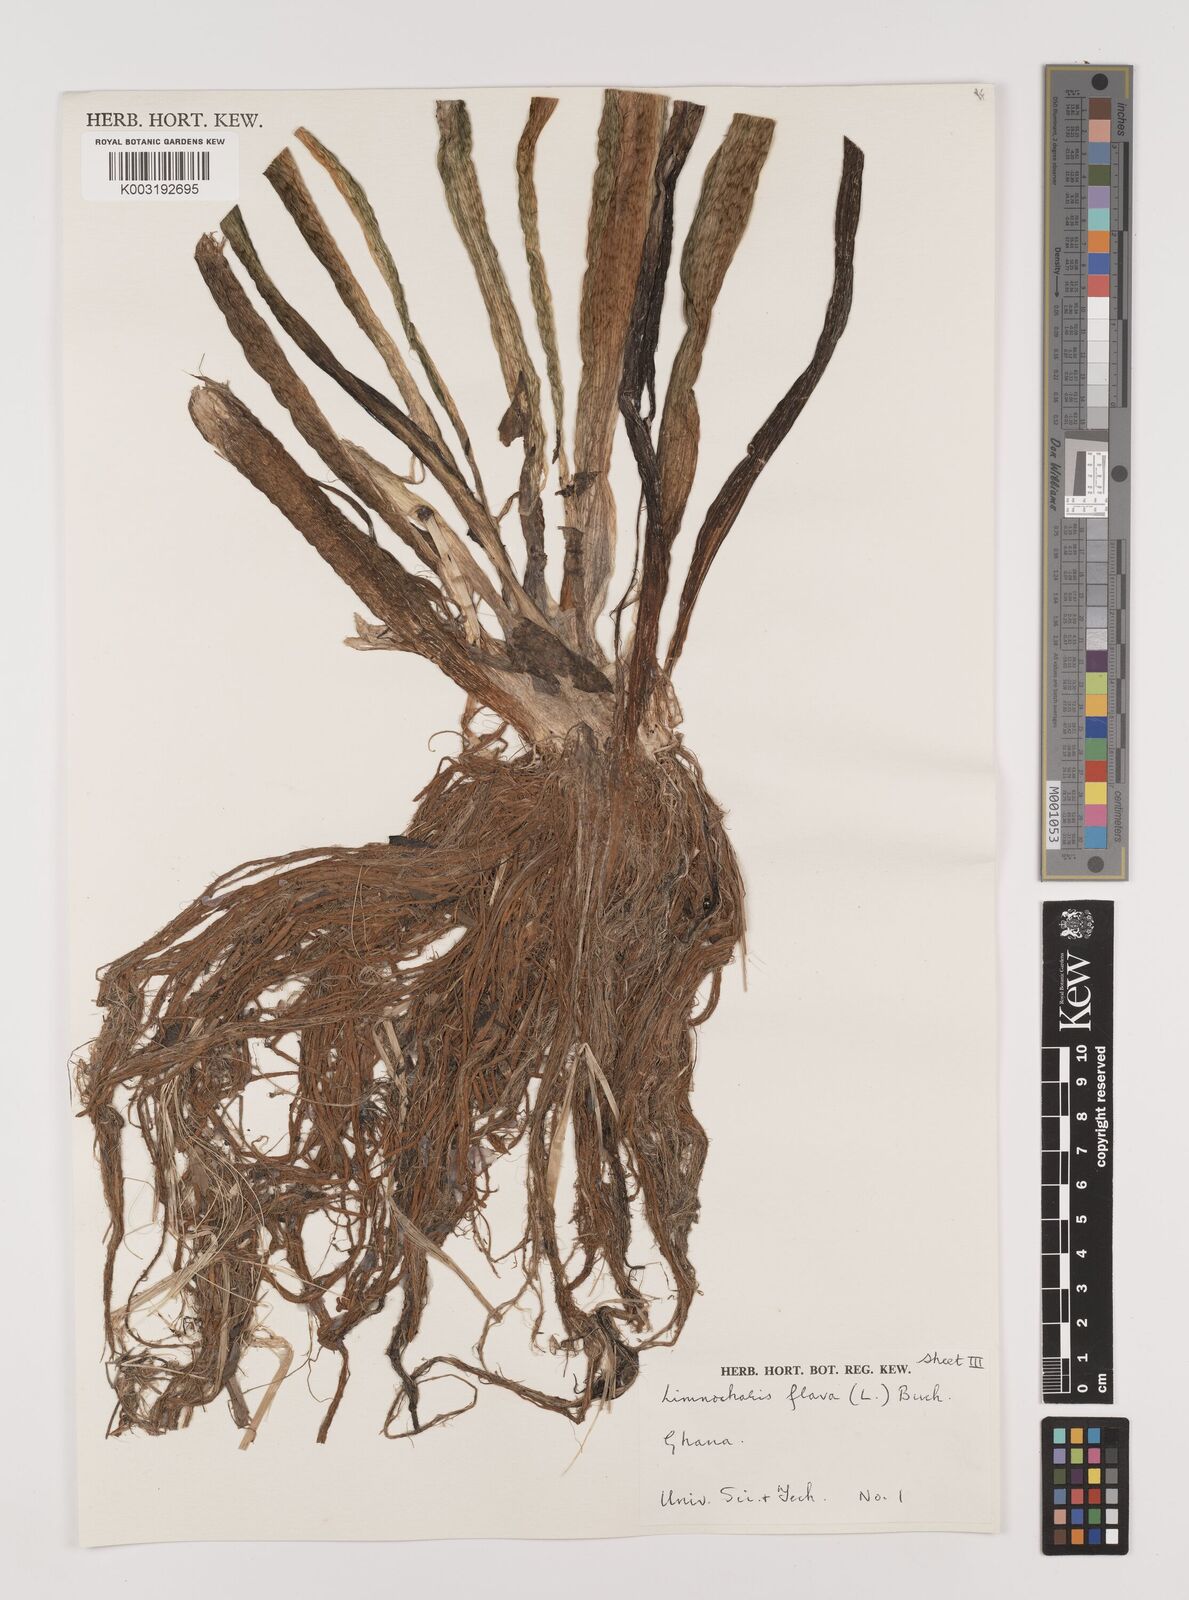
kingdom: Plantae
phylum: Tracheophyta
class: Liliopsida
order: Alismatales
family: Alismataceae
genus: Limnocharis
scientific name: Limnocharis flava
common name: Sawah-flower-rush
